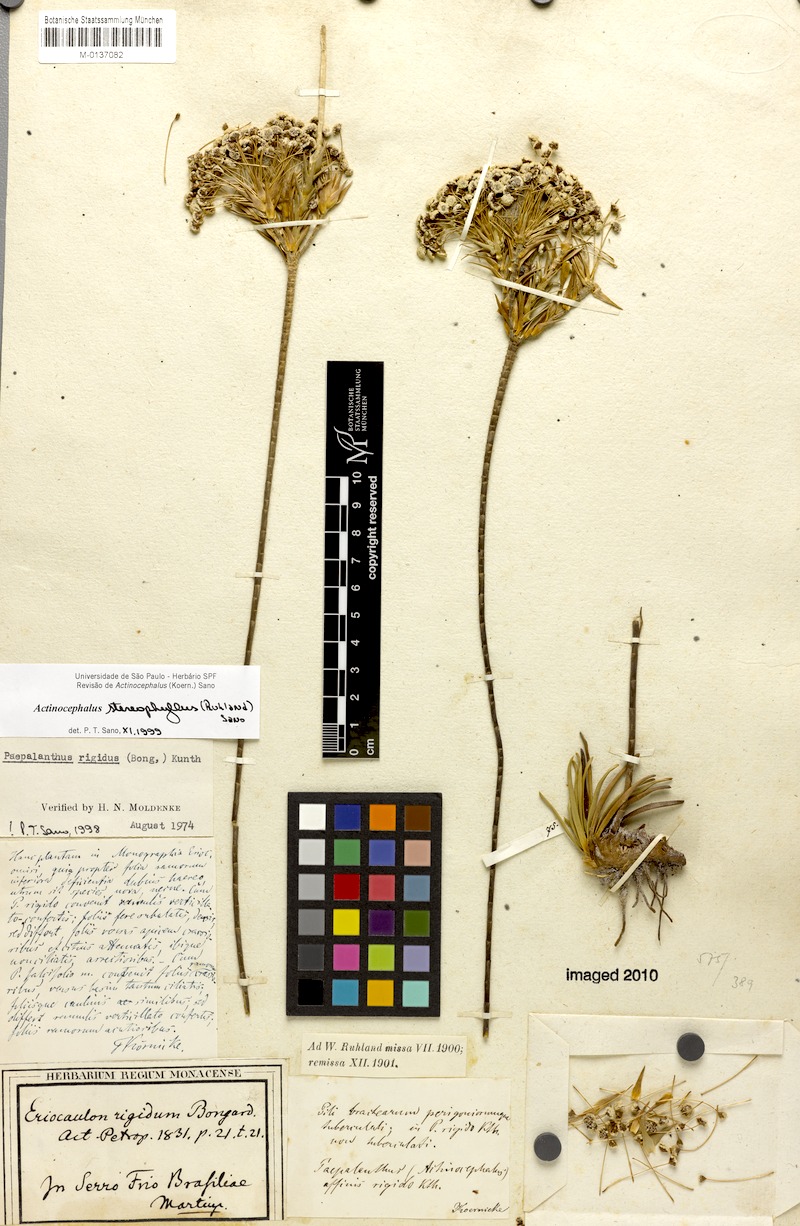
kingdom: Plantae
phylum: Tracheophyta
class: Liliopsida
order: Poales
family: Eriocaulaceae
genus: Paepalanthus
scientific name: Paepalanthus stereophyllus
